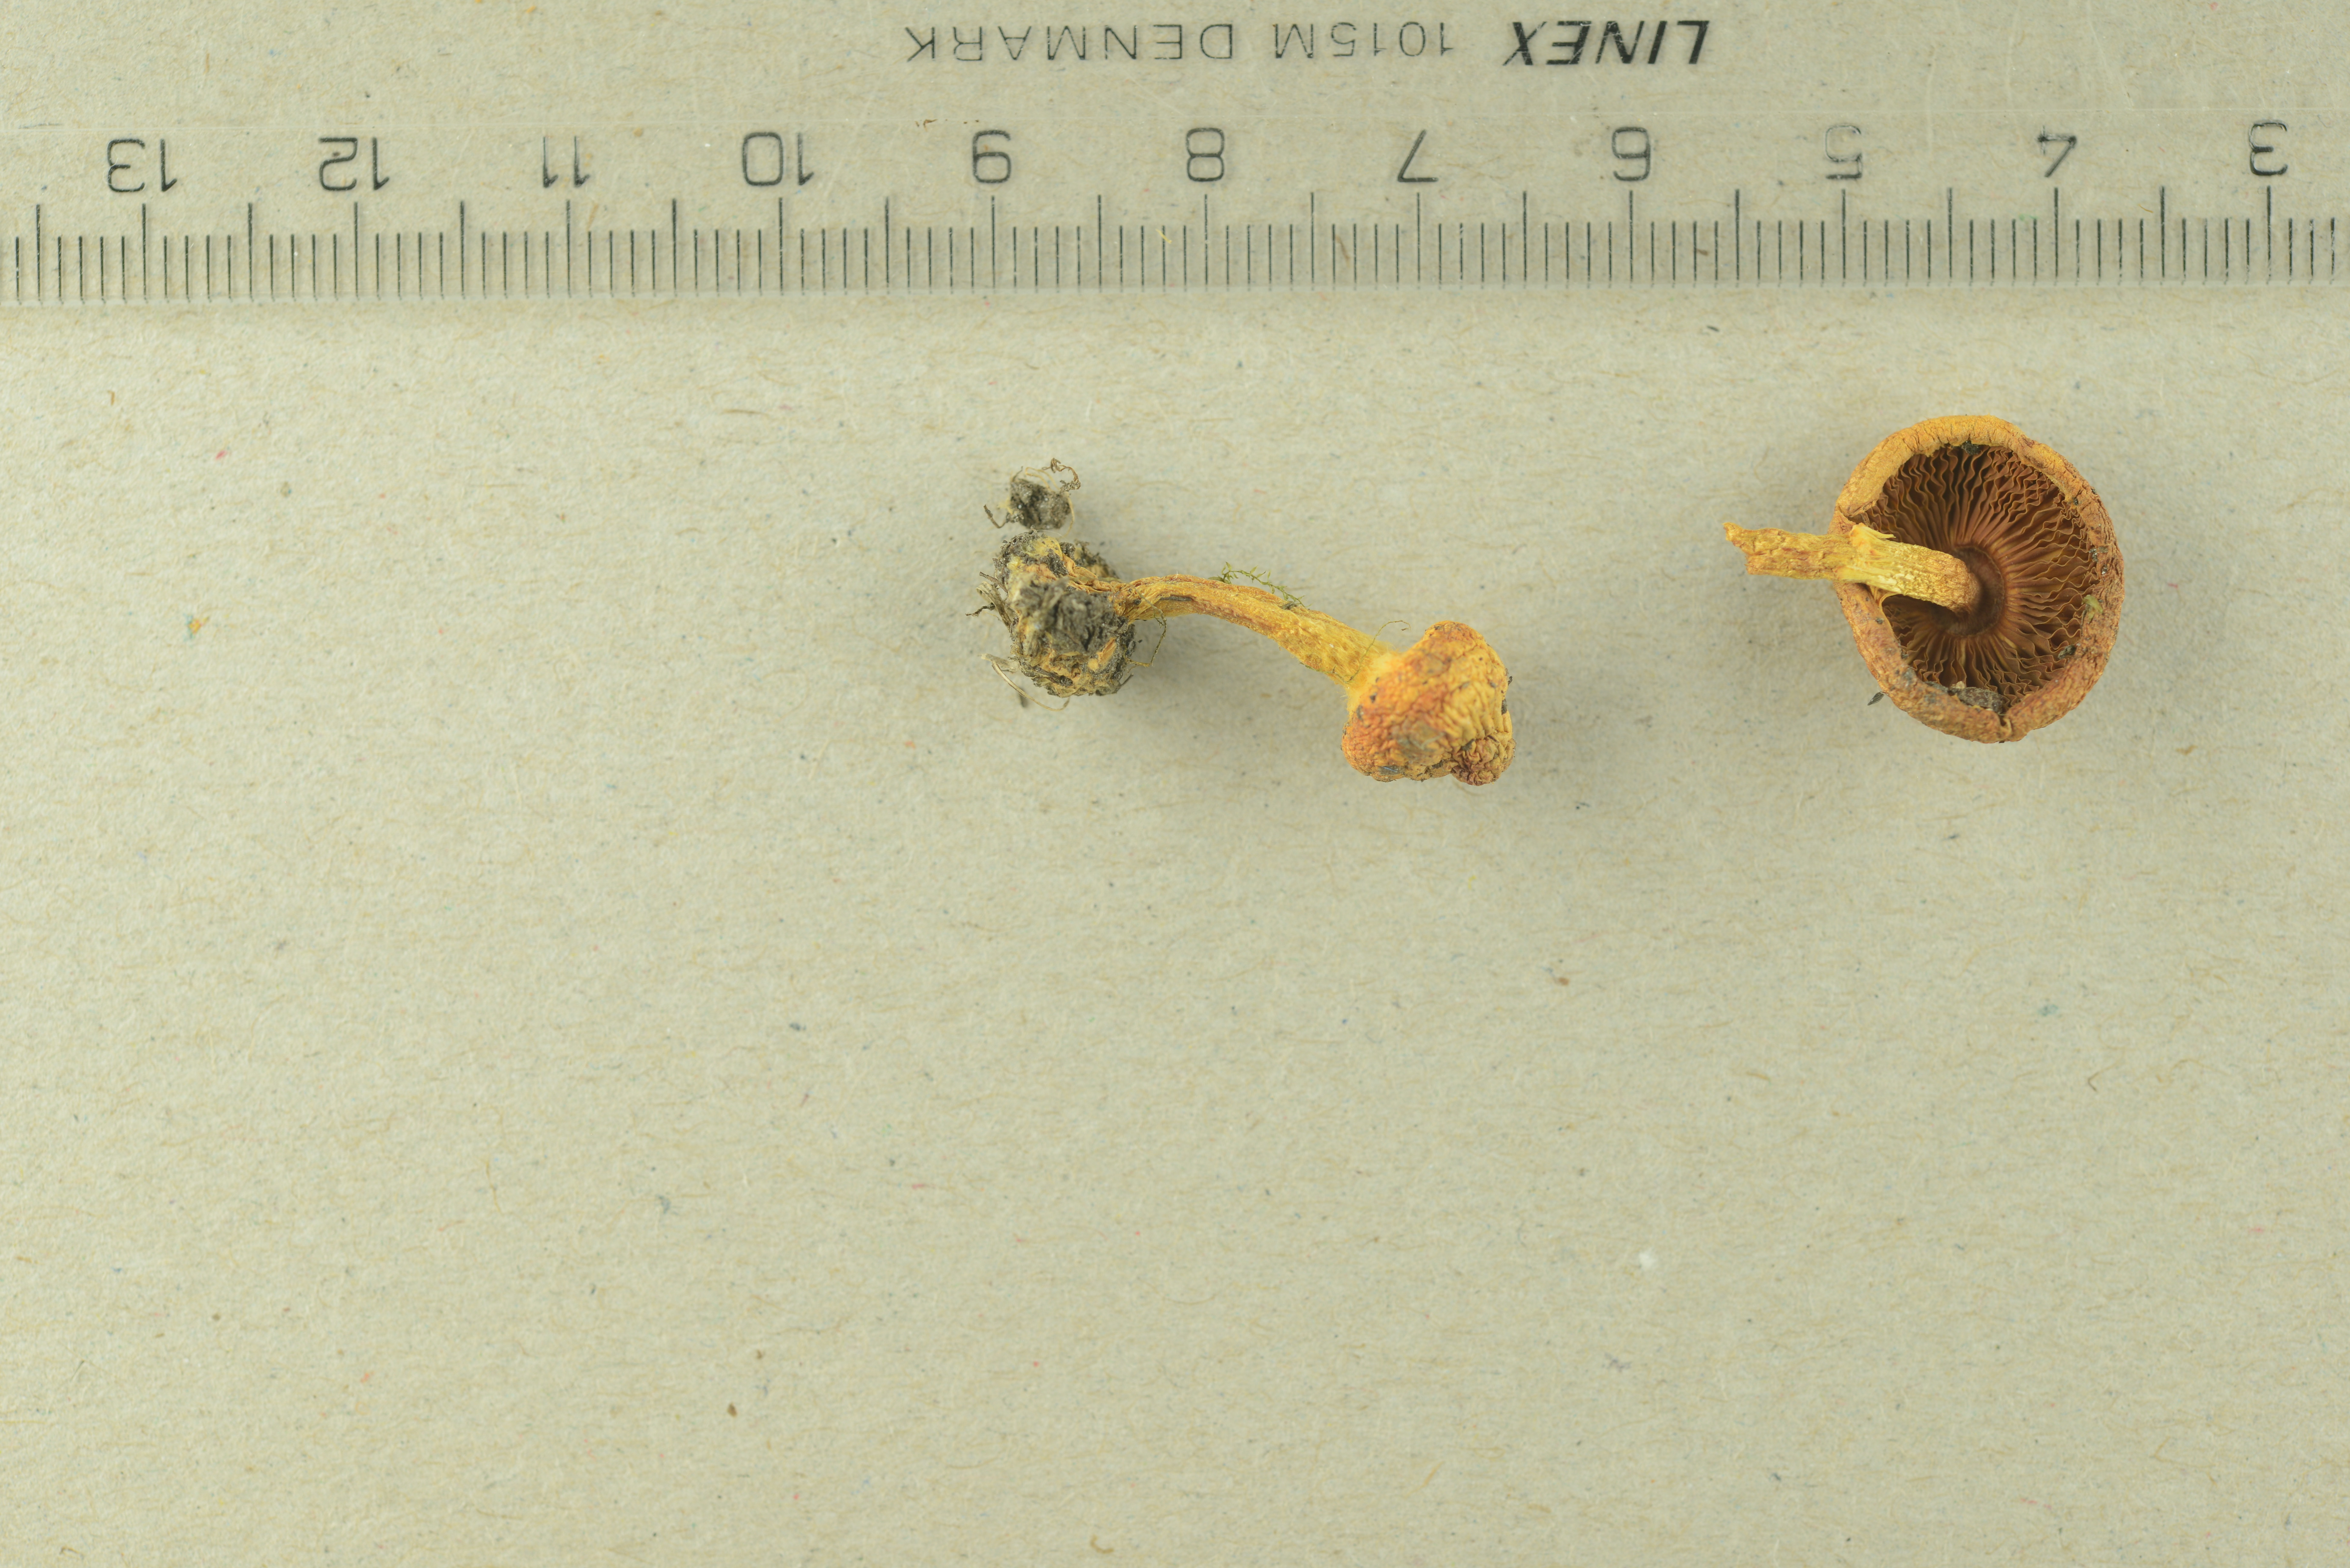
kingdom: Fungi
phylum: Basidiomycota
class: Agaricomycetes
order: Agaricales
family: Agaricaceae
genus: Agaricus
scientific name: Agaricus semotus
